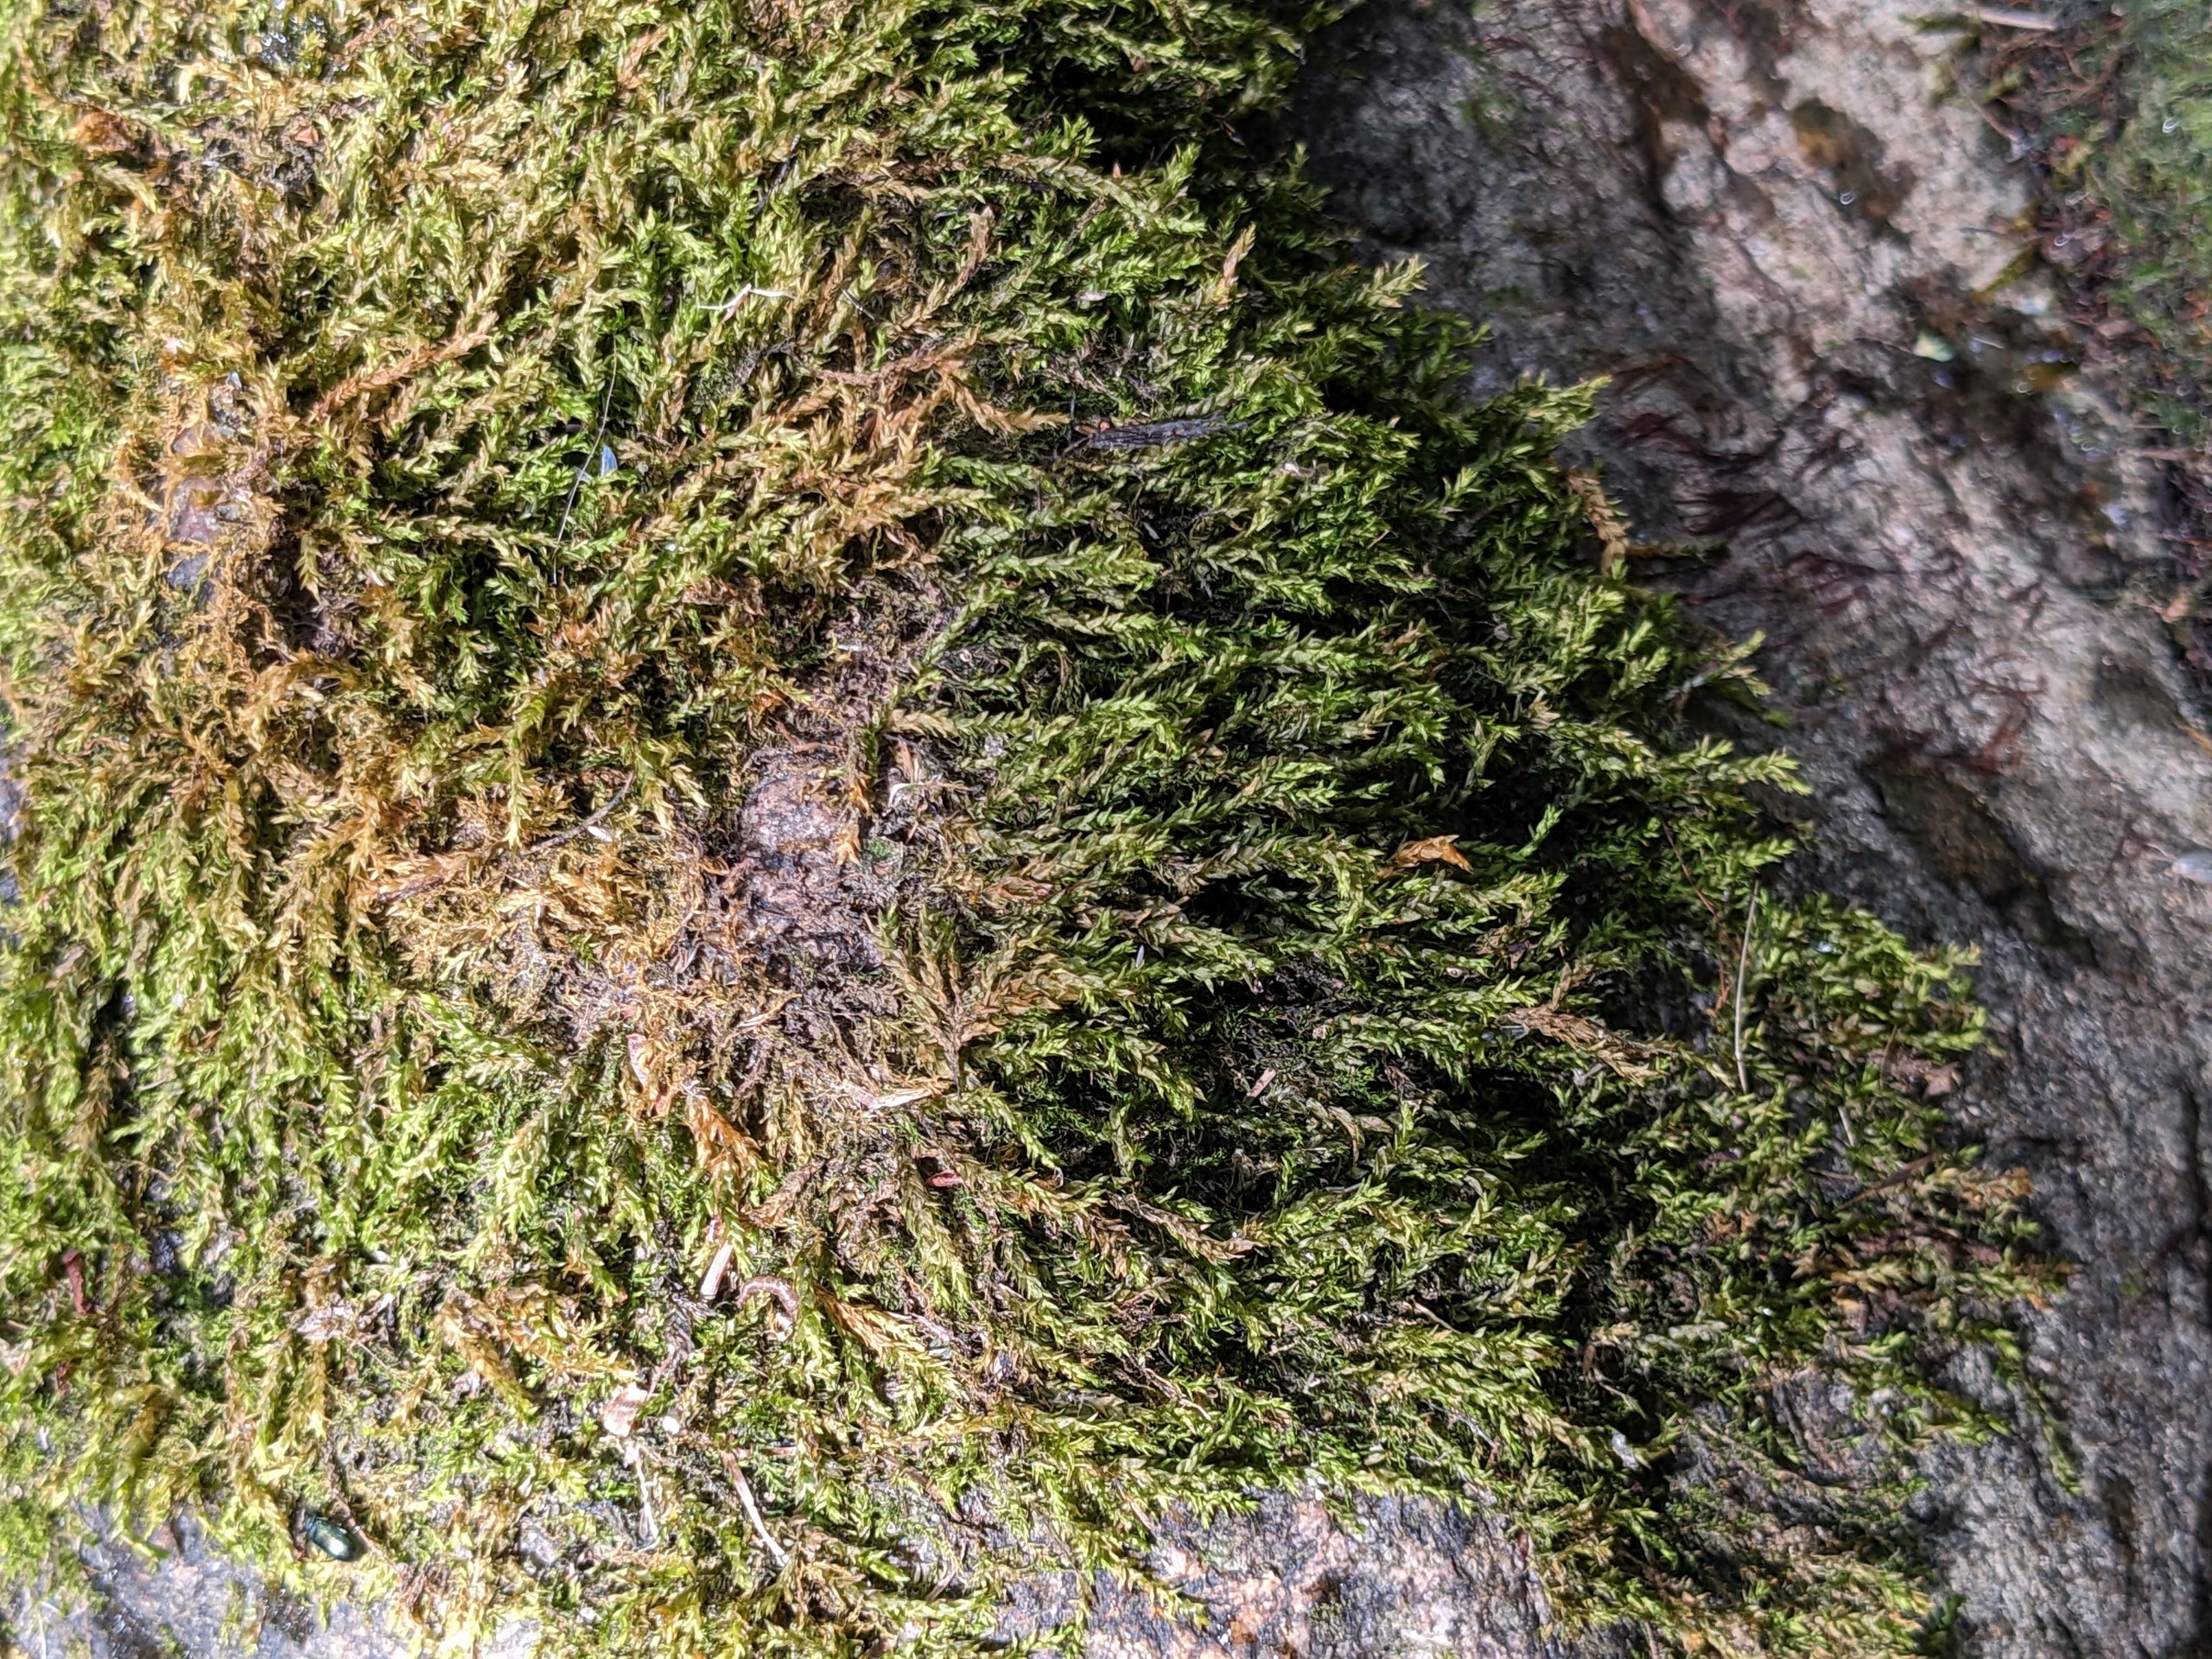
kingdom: Plantae
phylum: Bryophyta
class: Bryopsida
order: Hypnales
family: Brachytheciaceae
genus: Rhynchostegium
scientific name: Rhynchostegium riparioides
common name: Robust strømmos
